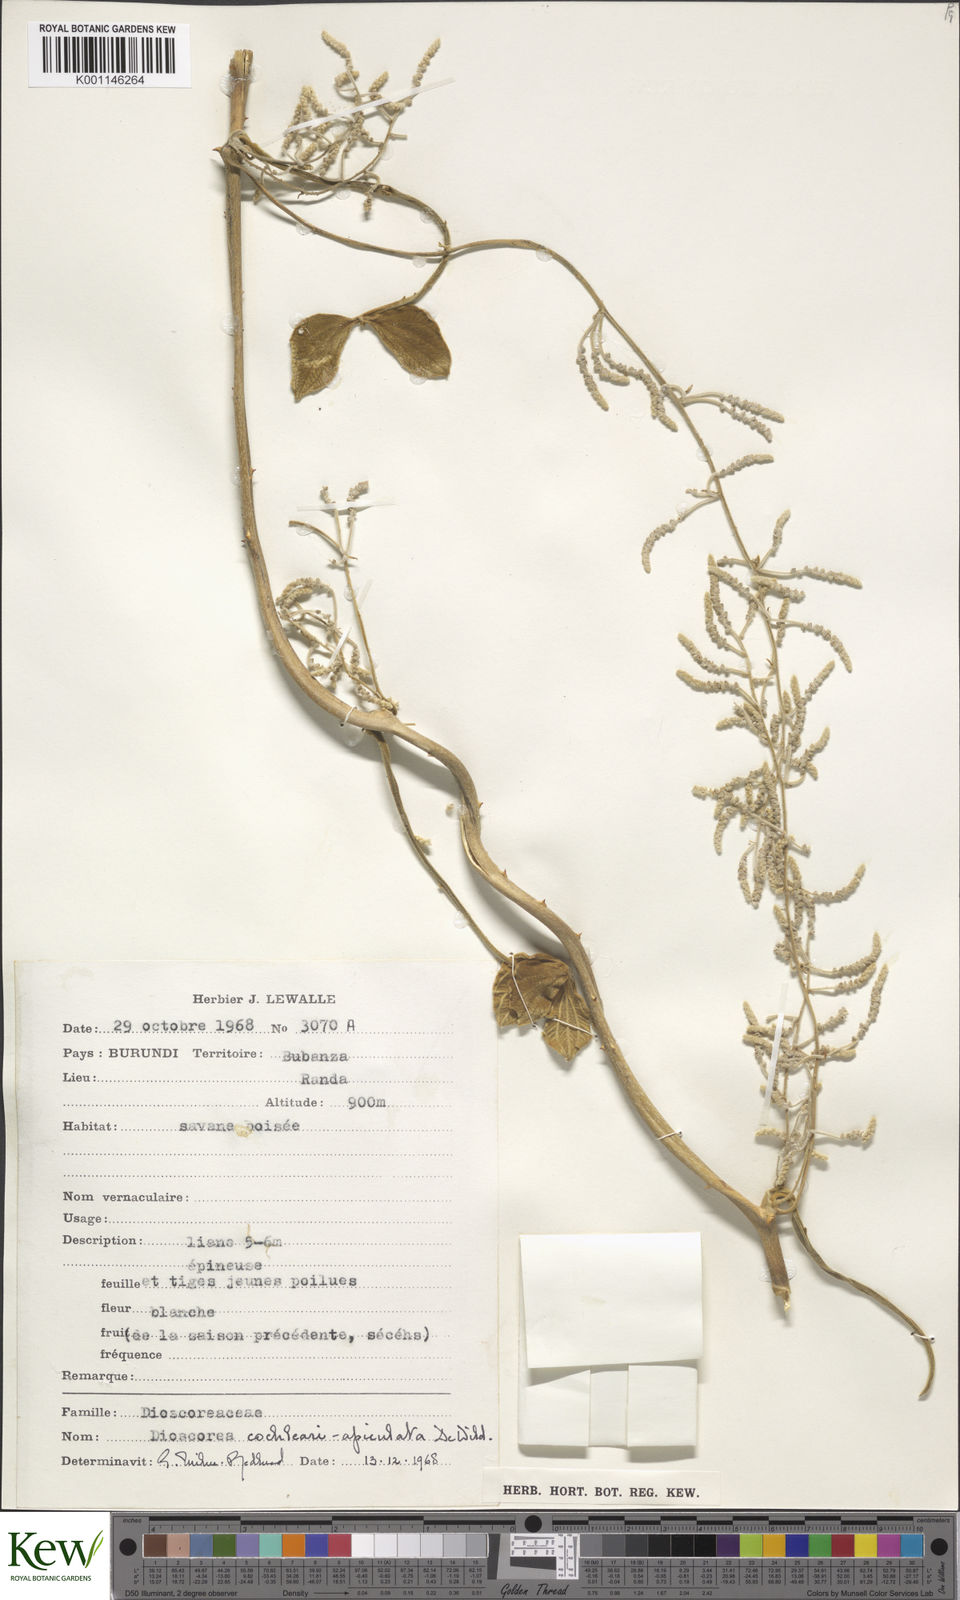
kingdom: Plantae
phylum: Tracheophyta
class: Liliopsida
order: Dioscoreales
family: Dioscoreaceae
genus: Dioscorea
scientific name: Dioscorea cochleariapiculata
